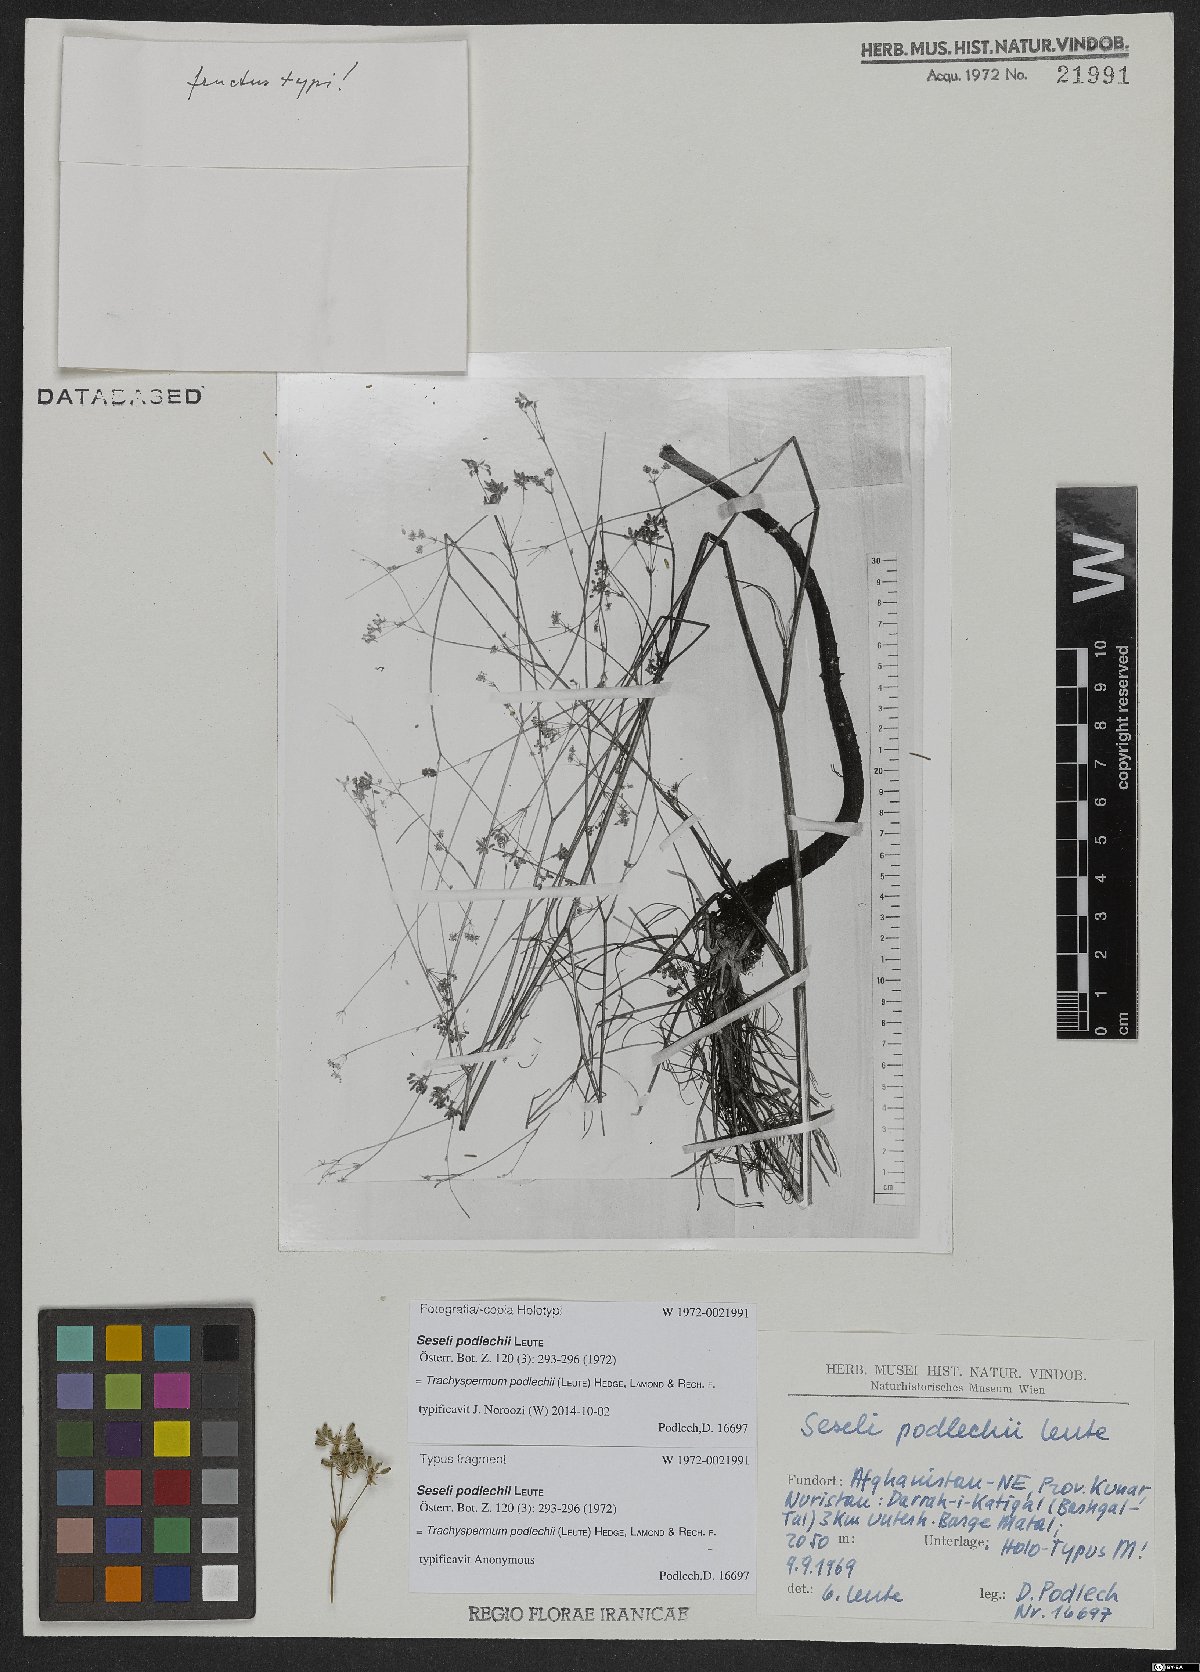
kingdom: Plantae
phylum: Tracheophyta
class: Magnoliopsida
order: Apiales
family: Apiaceae
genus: Trachyspermum
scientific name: Trachyspermum podlechii
